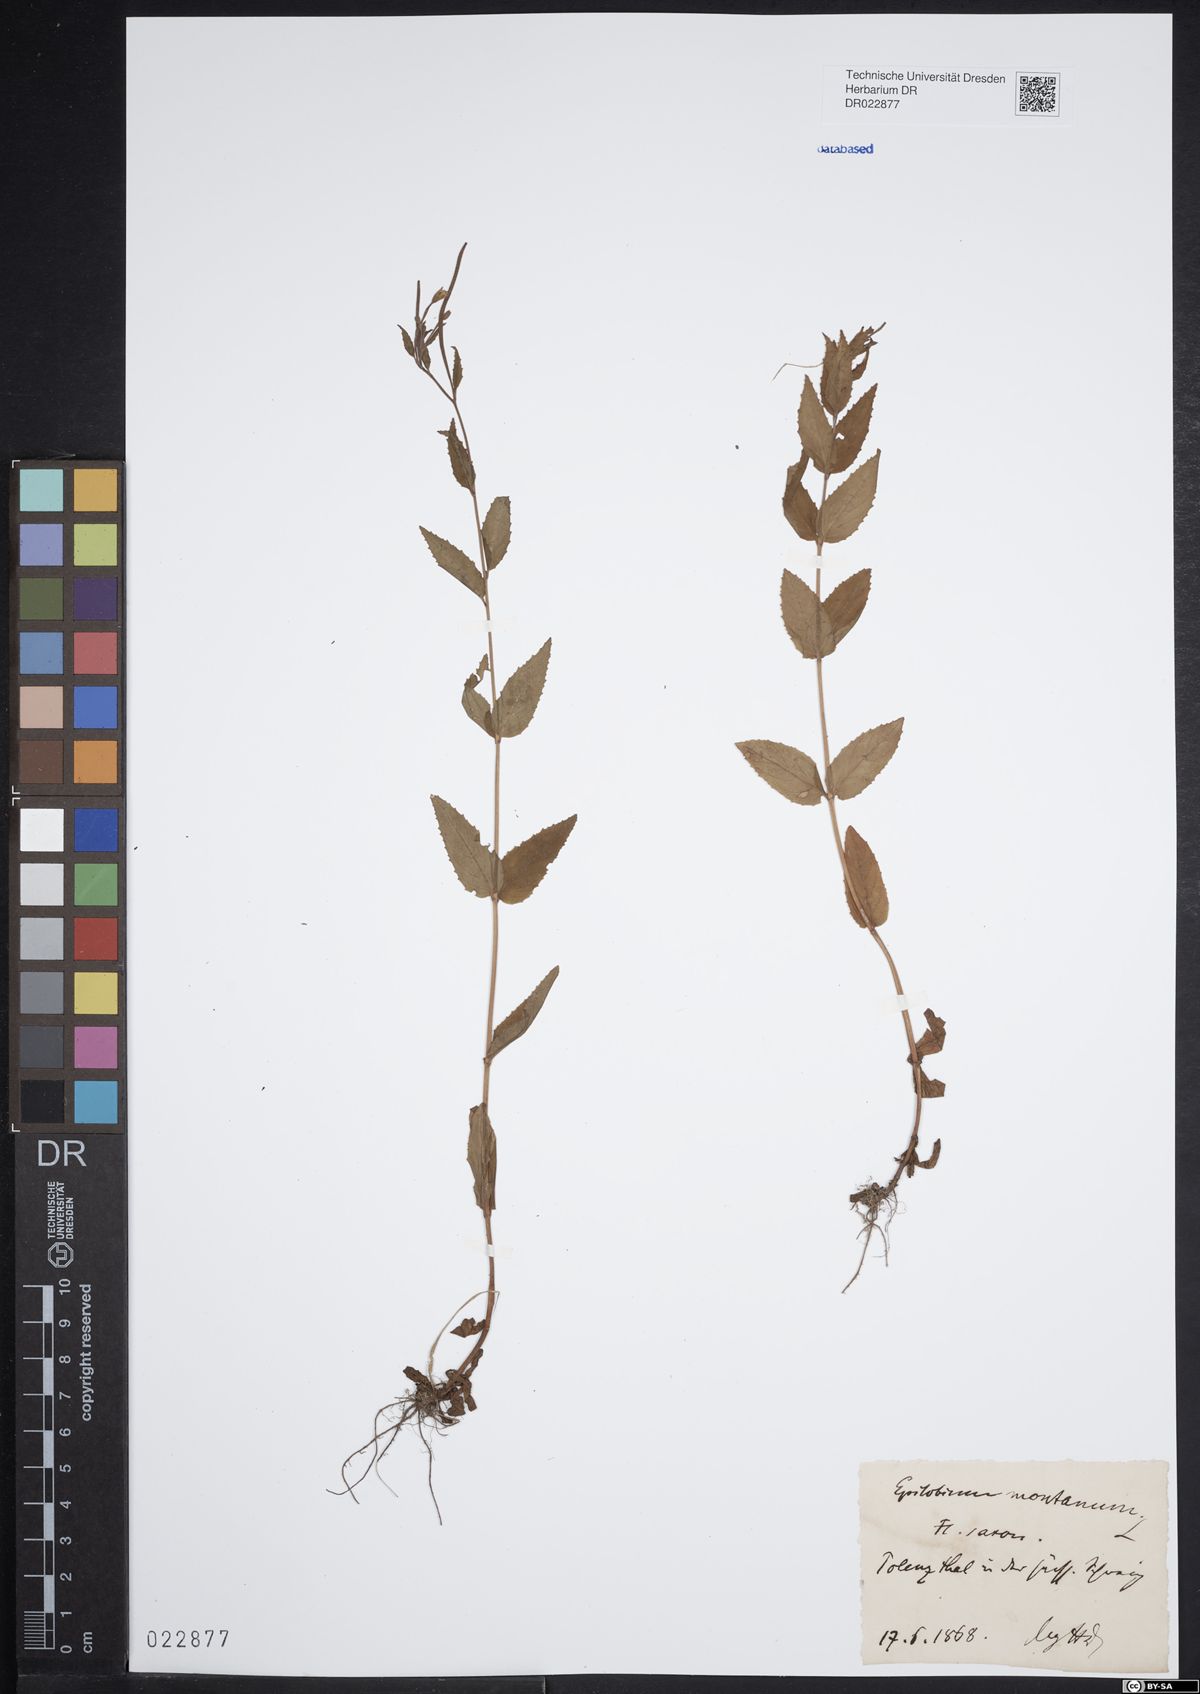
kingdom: Plantae
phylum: Tracheophyta
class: Magnoliopsida
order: Myrtales
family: Onagraceae
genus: Epilobium
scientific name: Epilobium montanum
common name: Broad-leaved willowherb
